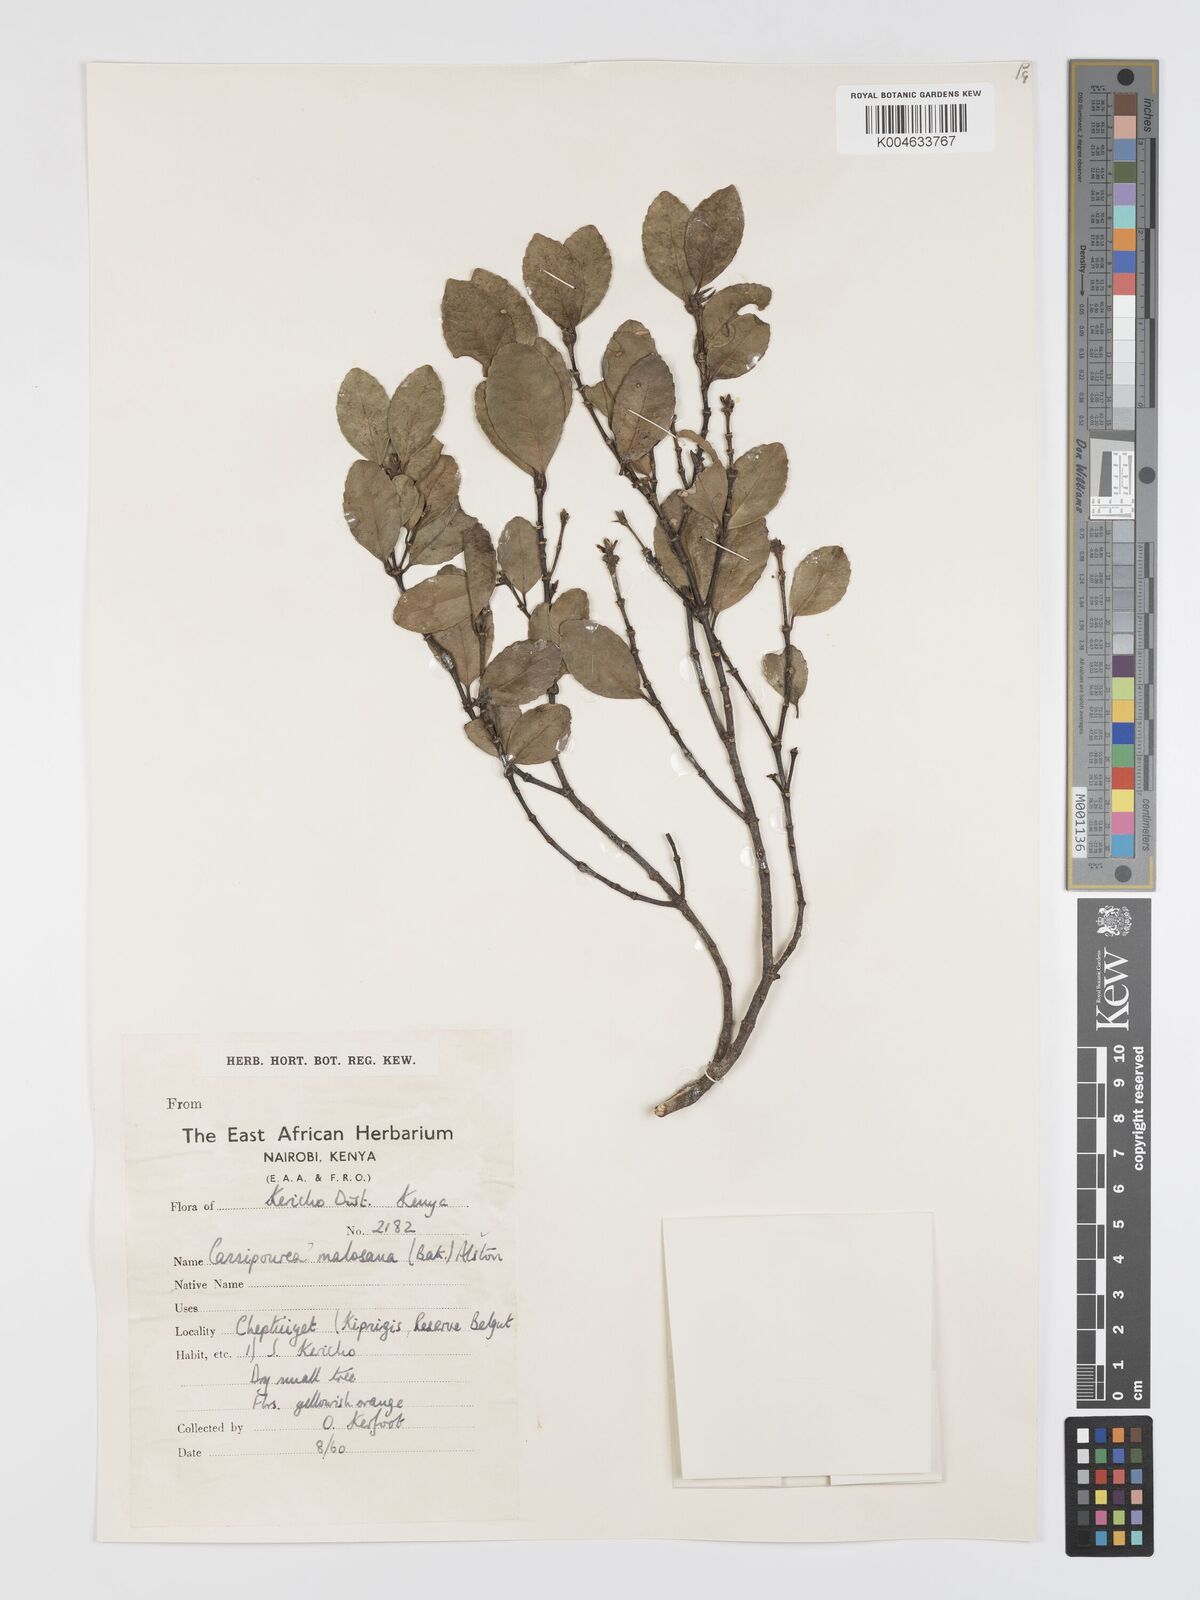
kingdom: Plantae
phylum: Tracheophyta
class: Magnoliopsida
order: Malpighiales
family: Rhizophoraceae
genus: Cassipourea
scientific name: Cassipourea malosana
